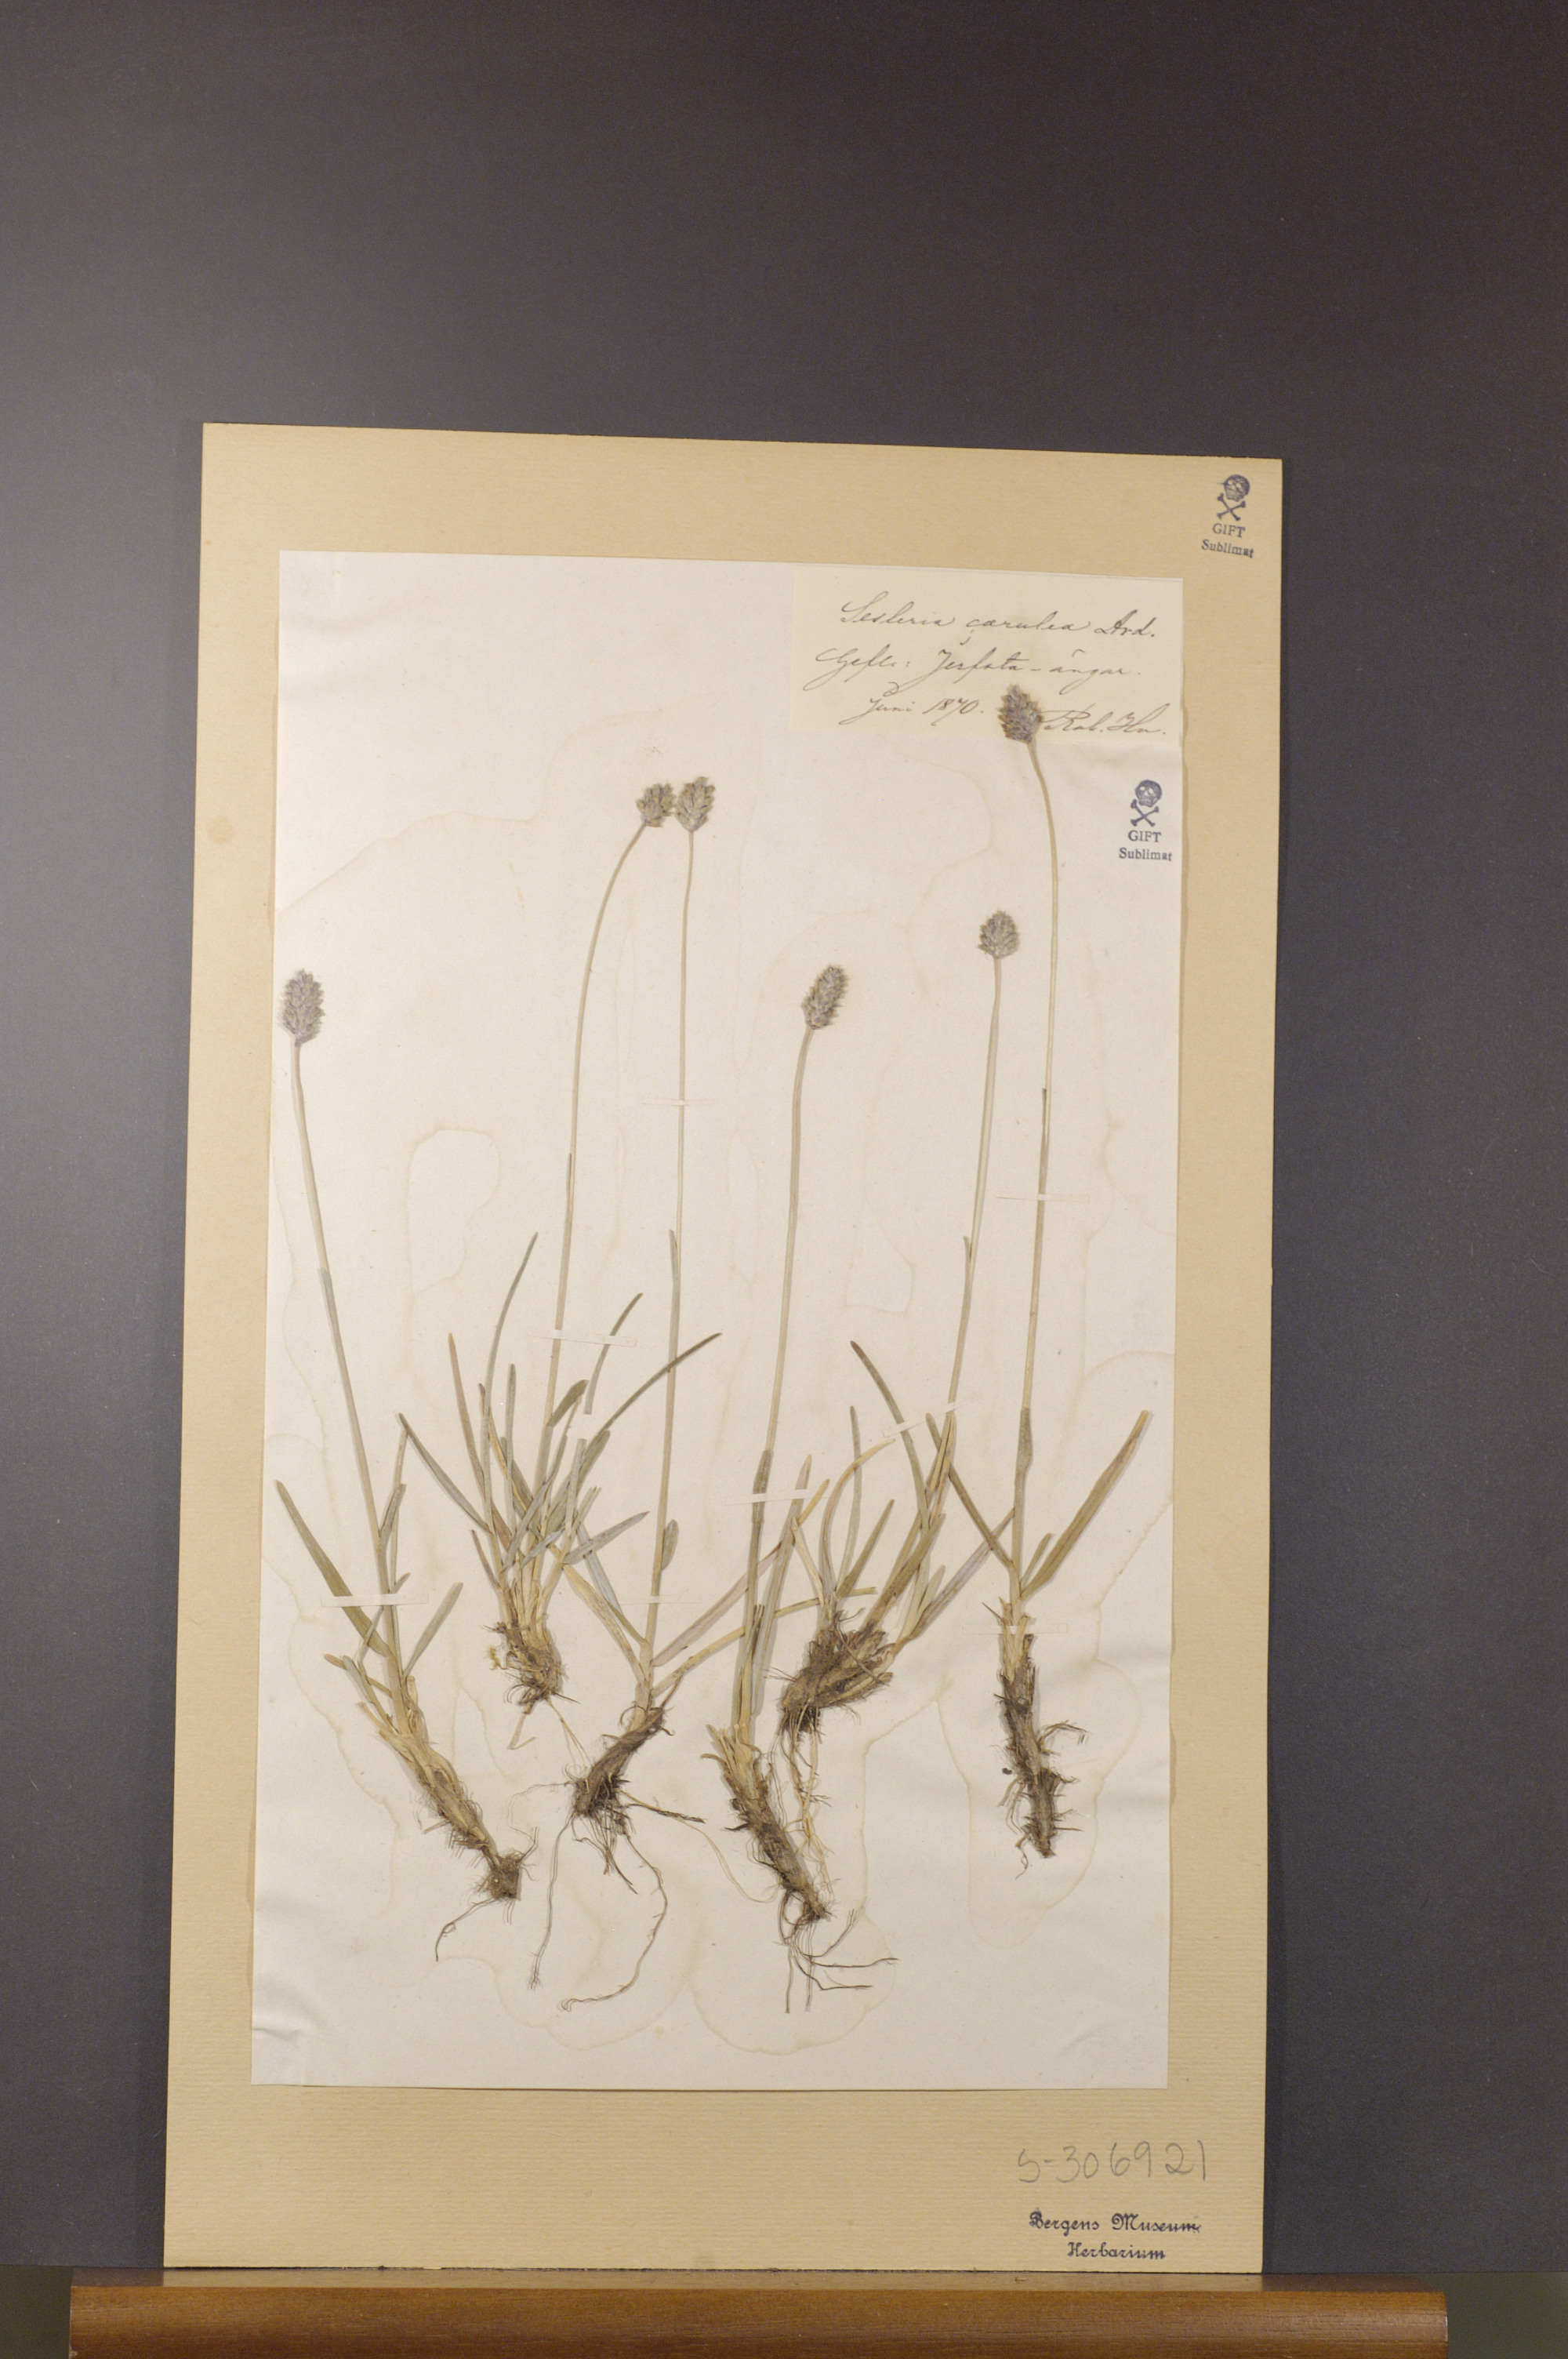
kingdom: Plantae
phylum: Tracheophyta
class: Liliopsida
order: Poales
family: Poaceae
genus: Sesleria
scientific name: Sesleria caerulea
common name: Blue moor-grass
